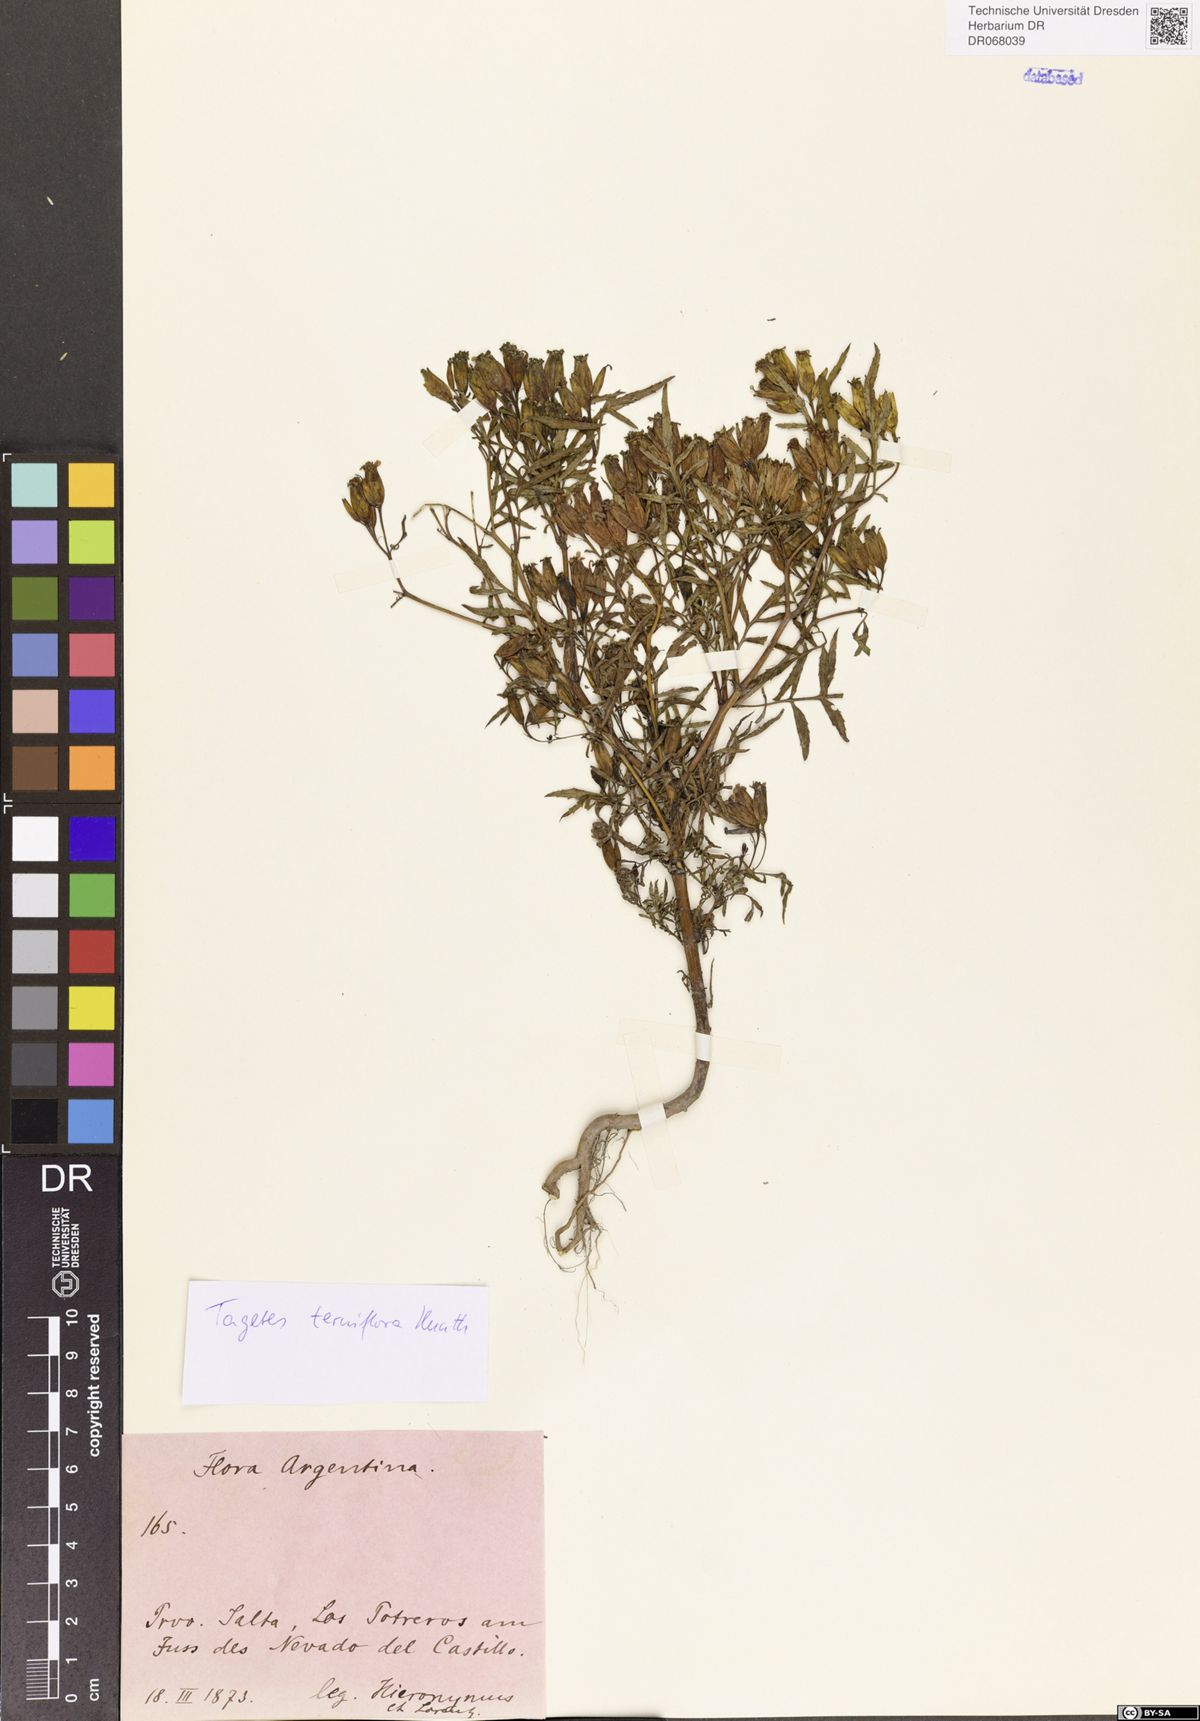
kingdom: Plantae
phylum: Tracheophyta
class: Magnoliopsida
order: Asterales
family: Asteraceae
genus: Tagetes
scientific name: Tagetes terniflora
